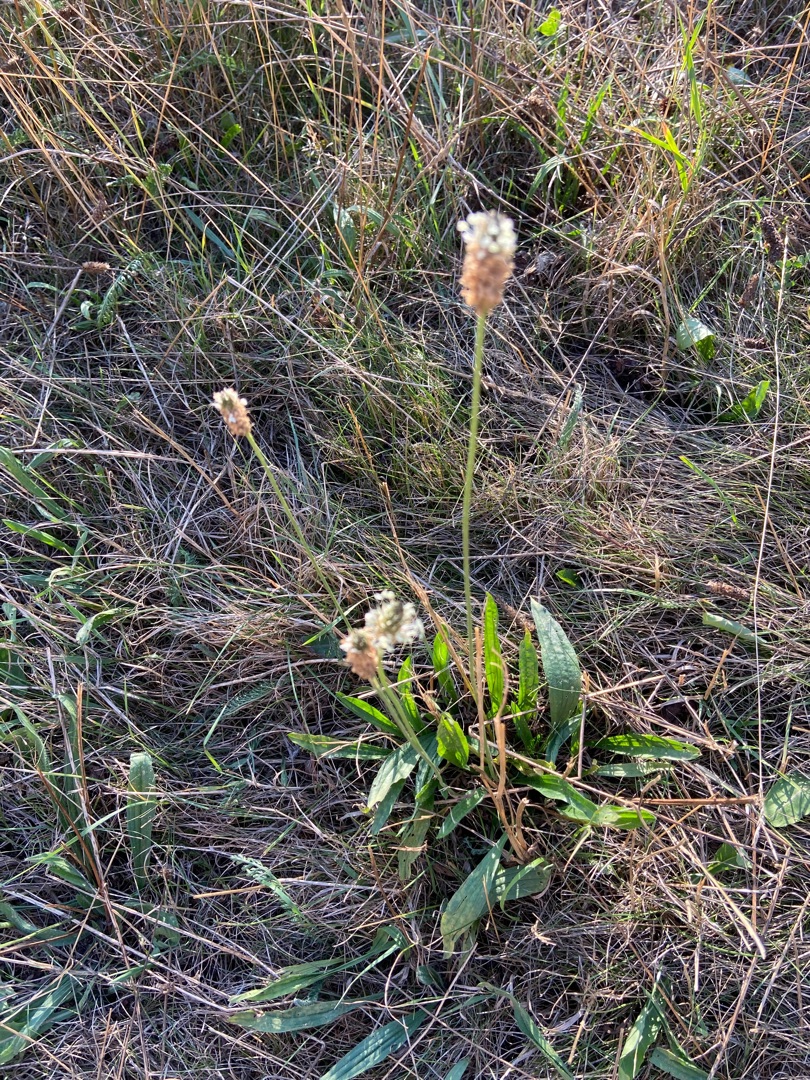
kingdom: Plantae
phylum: Tracheophyta
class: Magnoliopsida
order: Lamiales
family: Plantaginaceae
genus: Plantago
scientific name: Plantago lanceolata
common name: Lancet-vejbred
